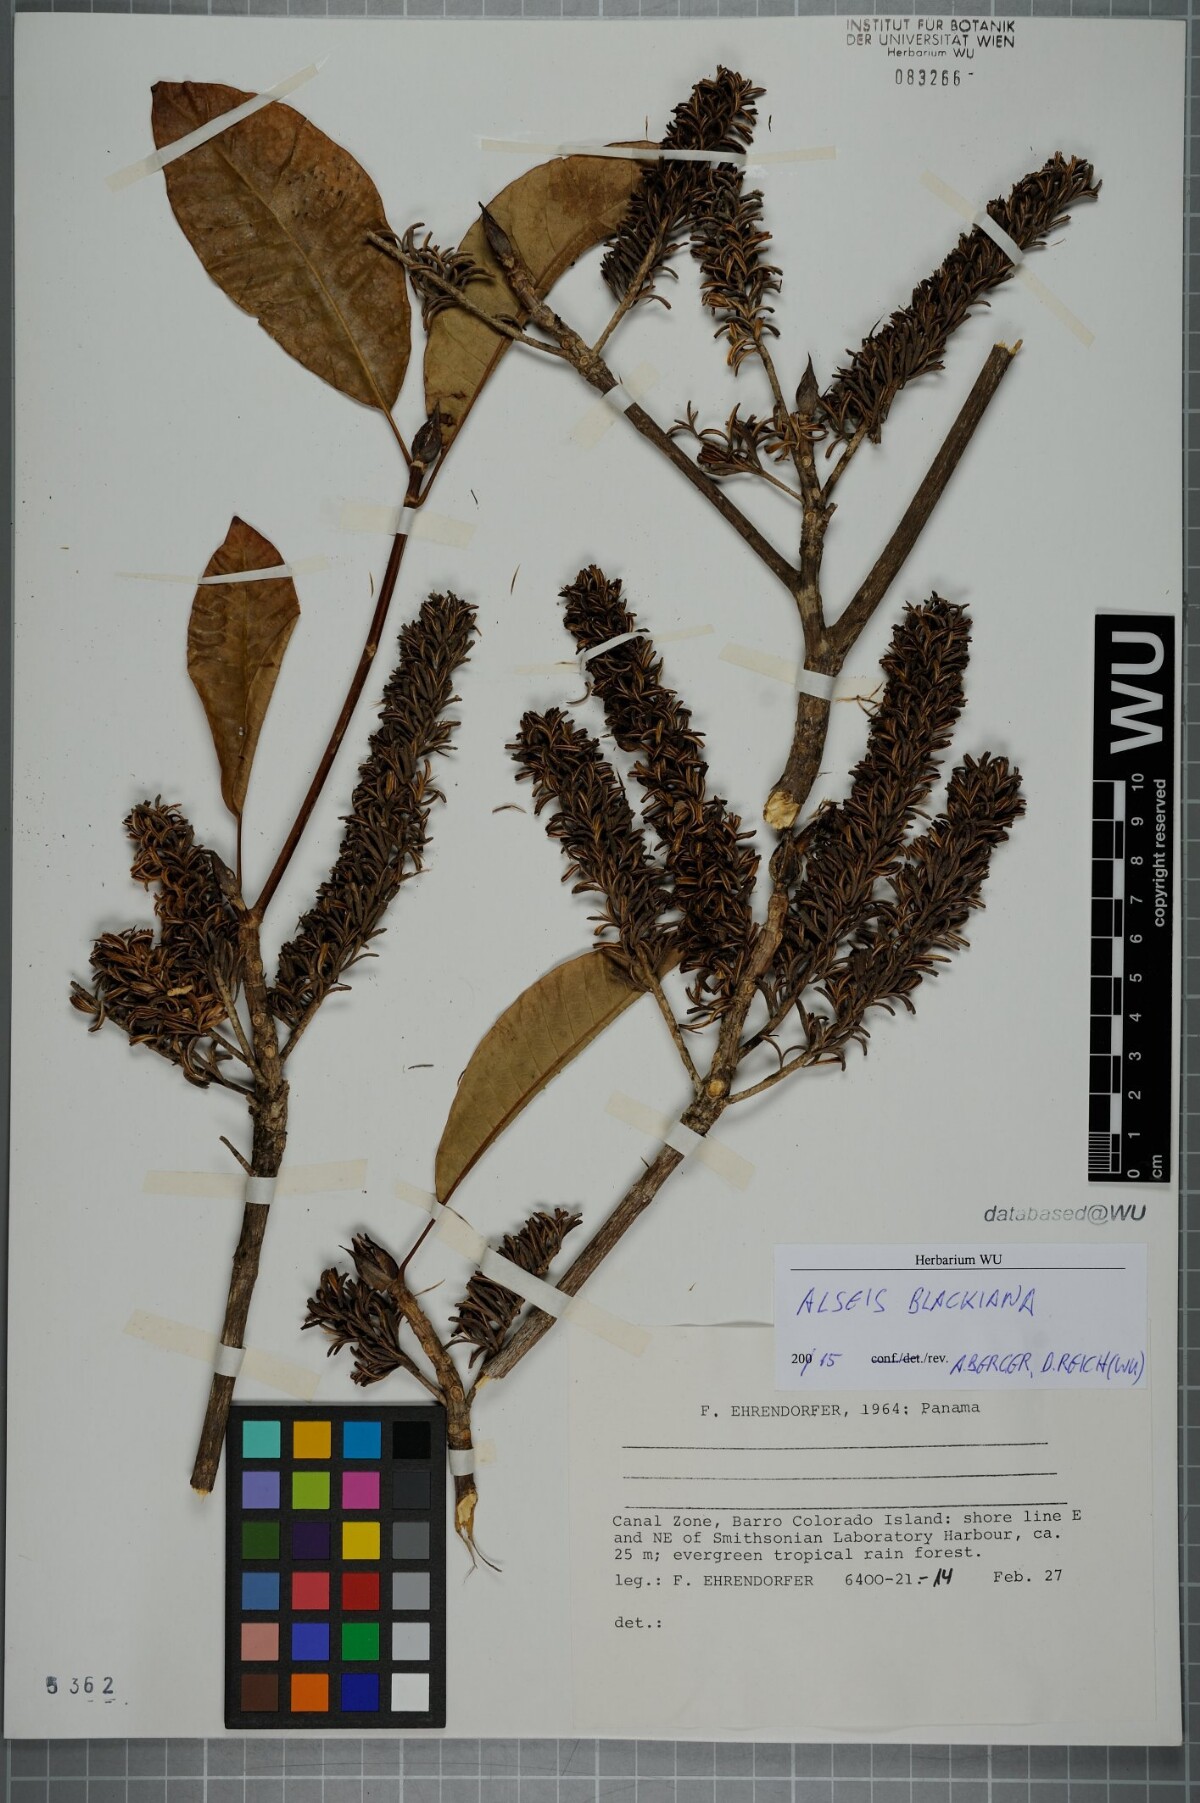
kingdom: Plantae
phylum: Tracheophyta
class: Magnoliopsida
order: Gentianales
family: Rubiaceae
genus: Alseis
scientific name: Alseis blackiana
